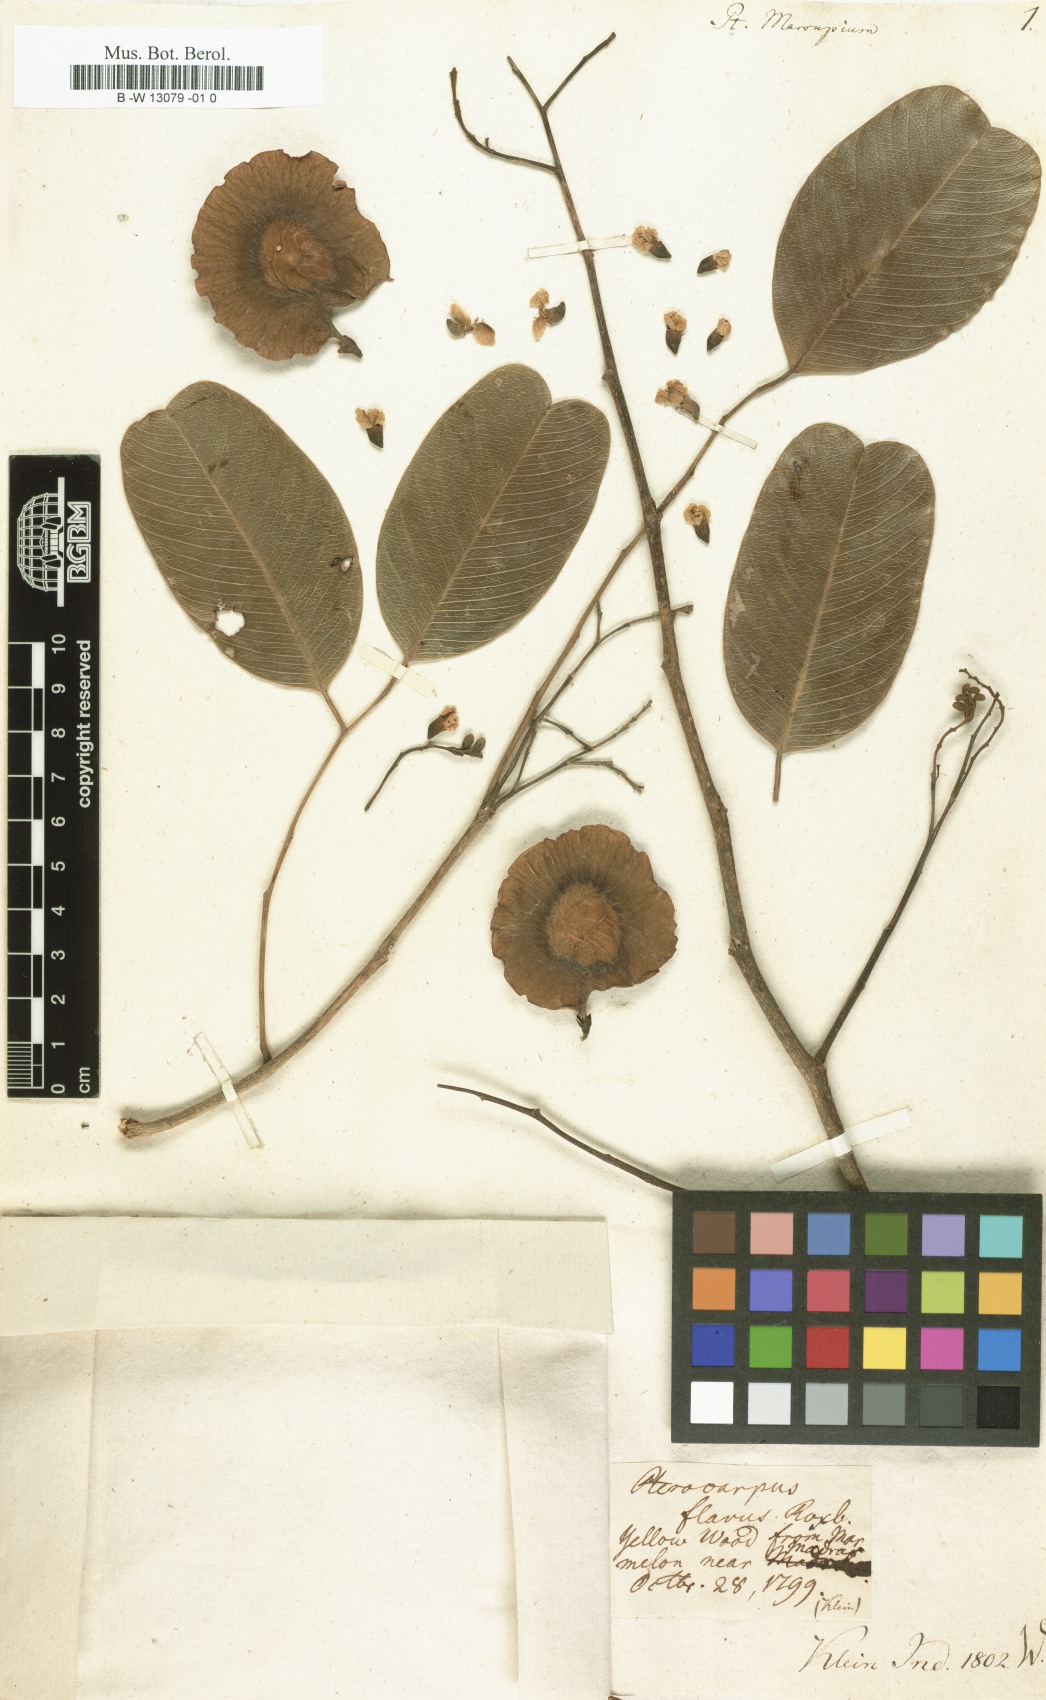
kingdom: Plantae
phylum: Tracheophyta
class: Magnoliopsida
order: Fabales
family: Fabaceae
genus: Pterocarpus
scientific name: Pterocarpus marsupium
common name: East indian/malabar kino
